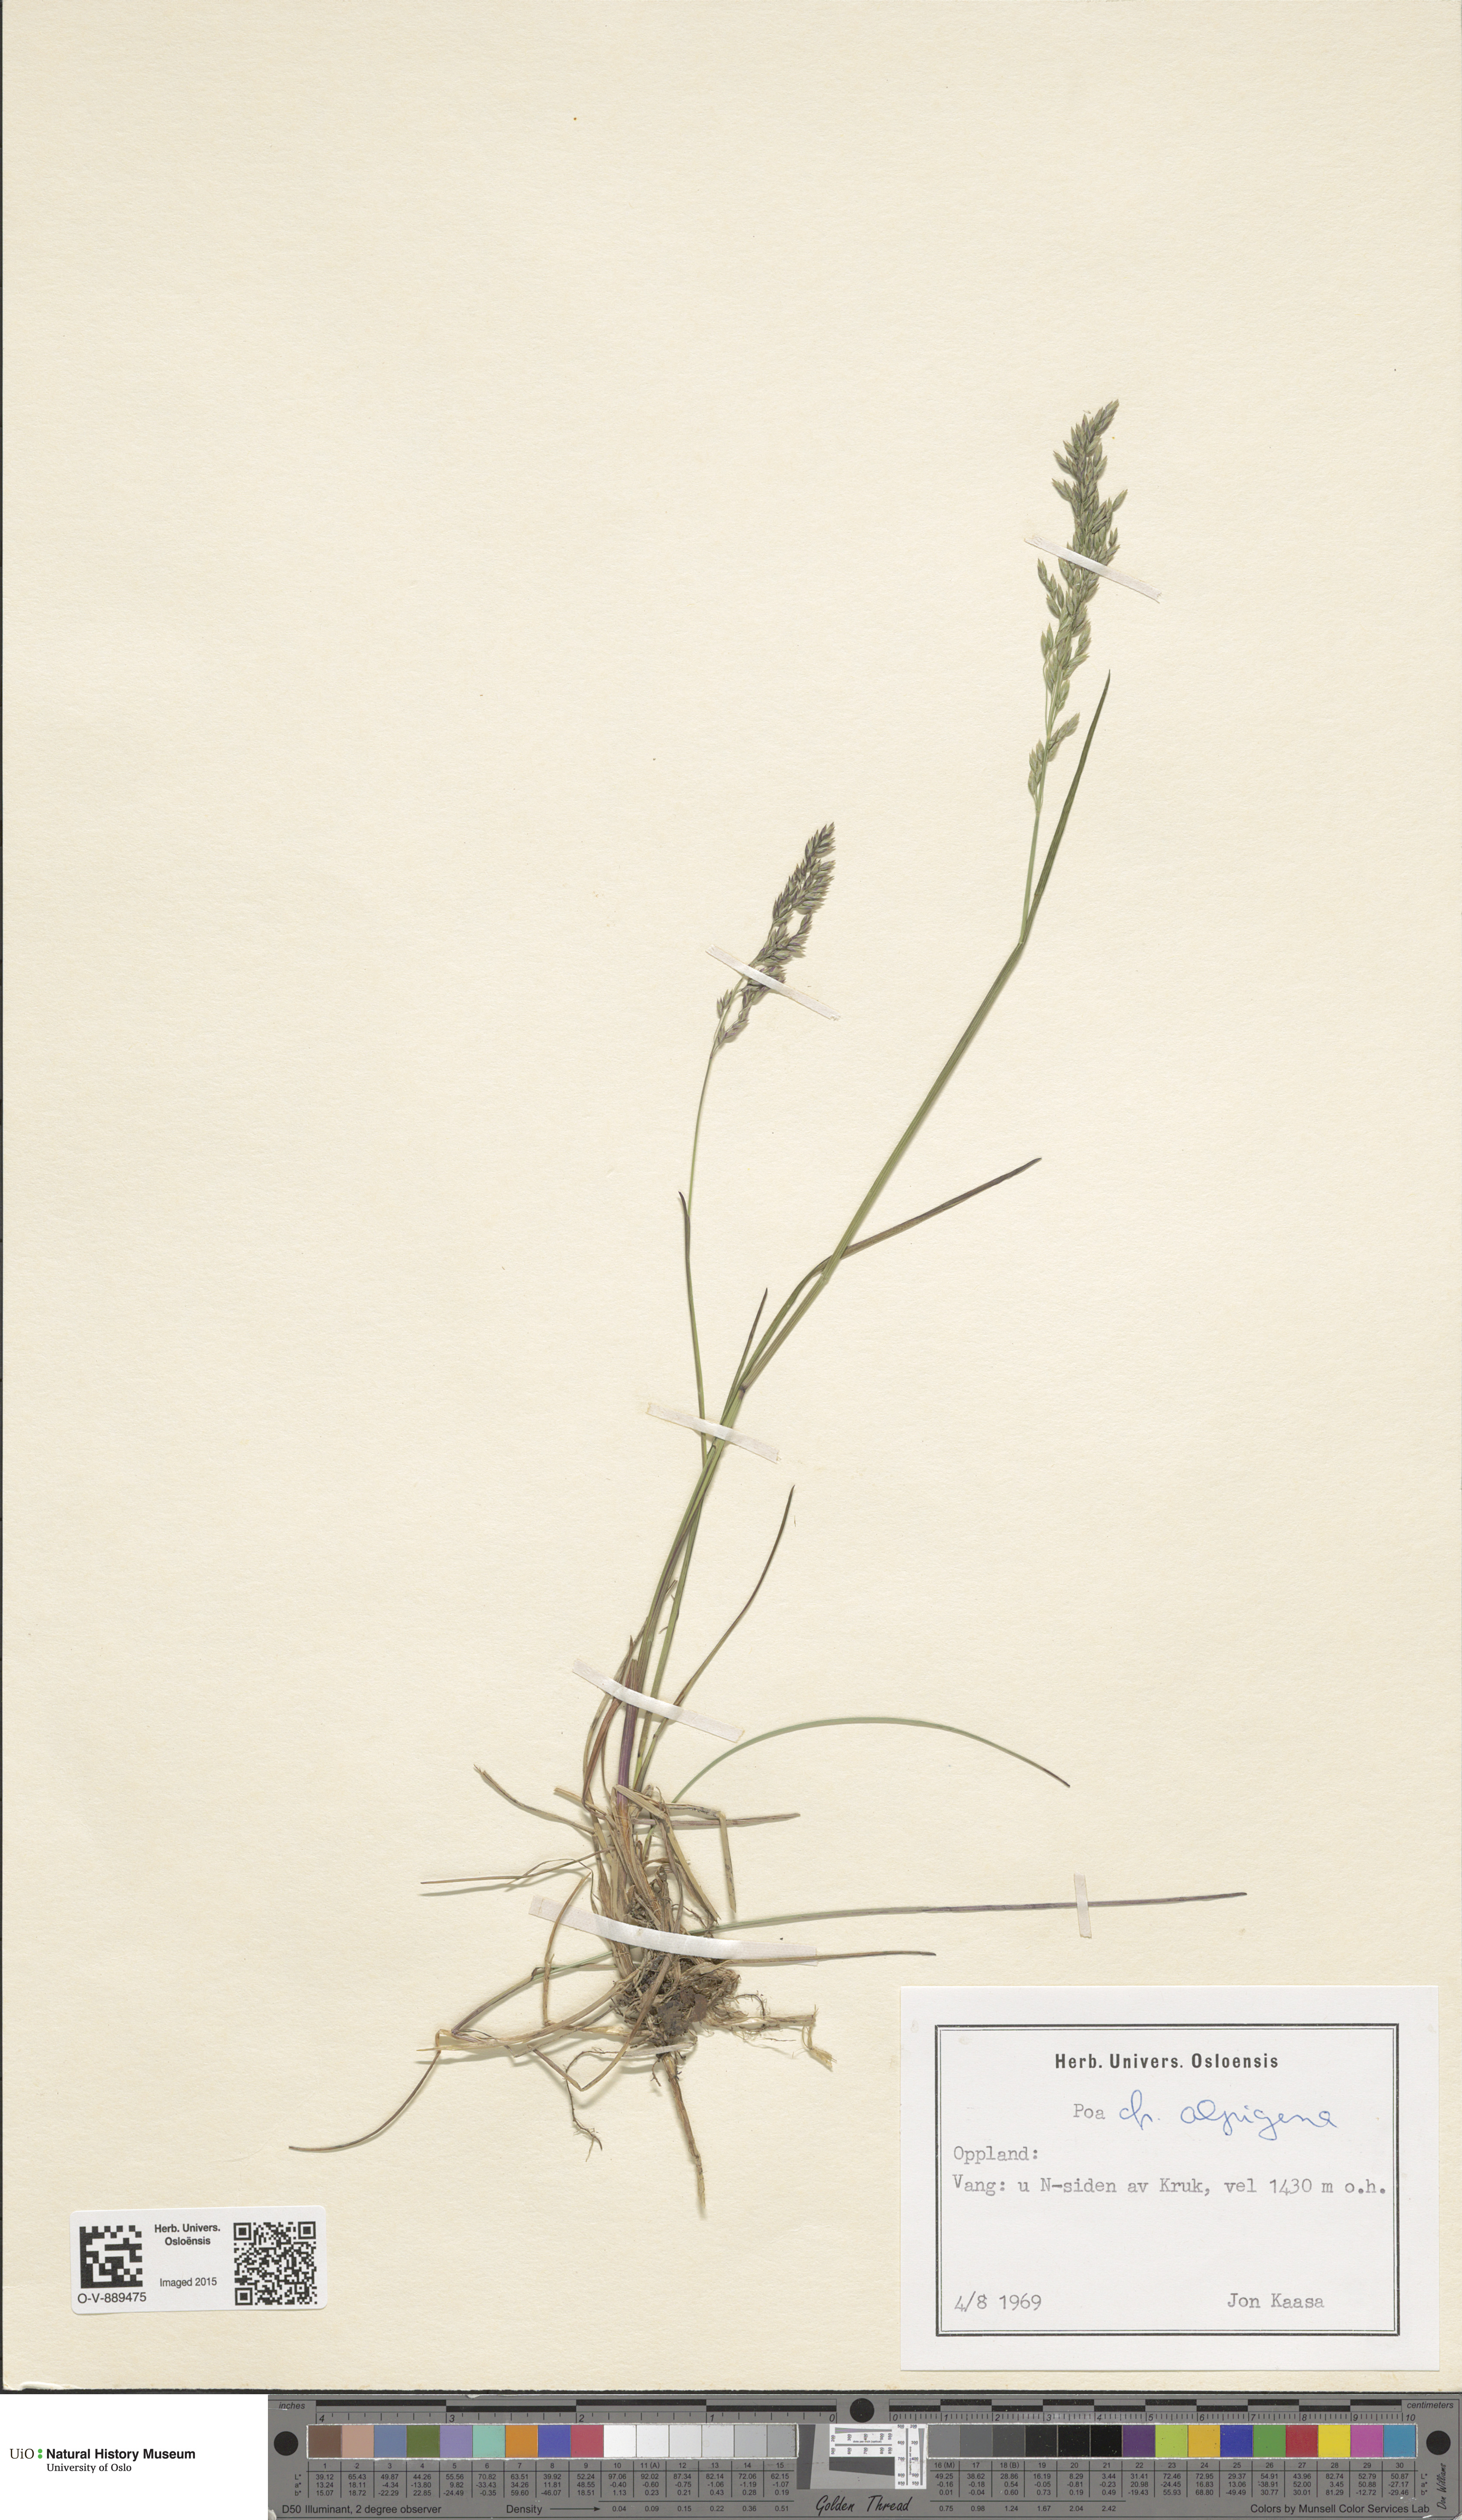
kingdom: Plantae
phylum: Tracheophyta
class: Liliopsida
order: Poales
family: Poaceae
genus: Poa
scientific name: Poa alpigena
